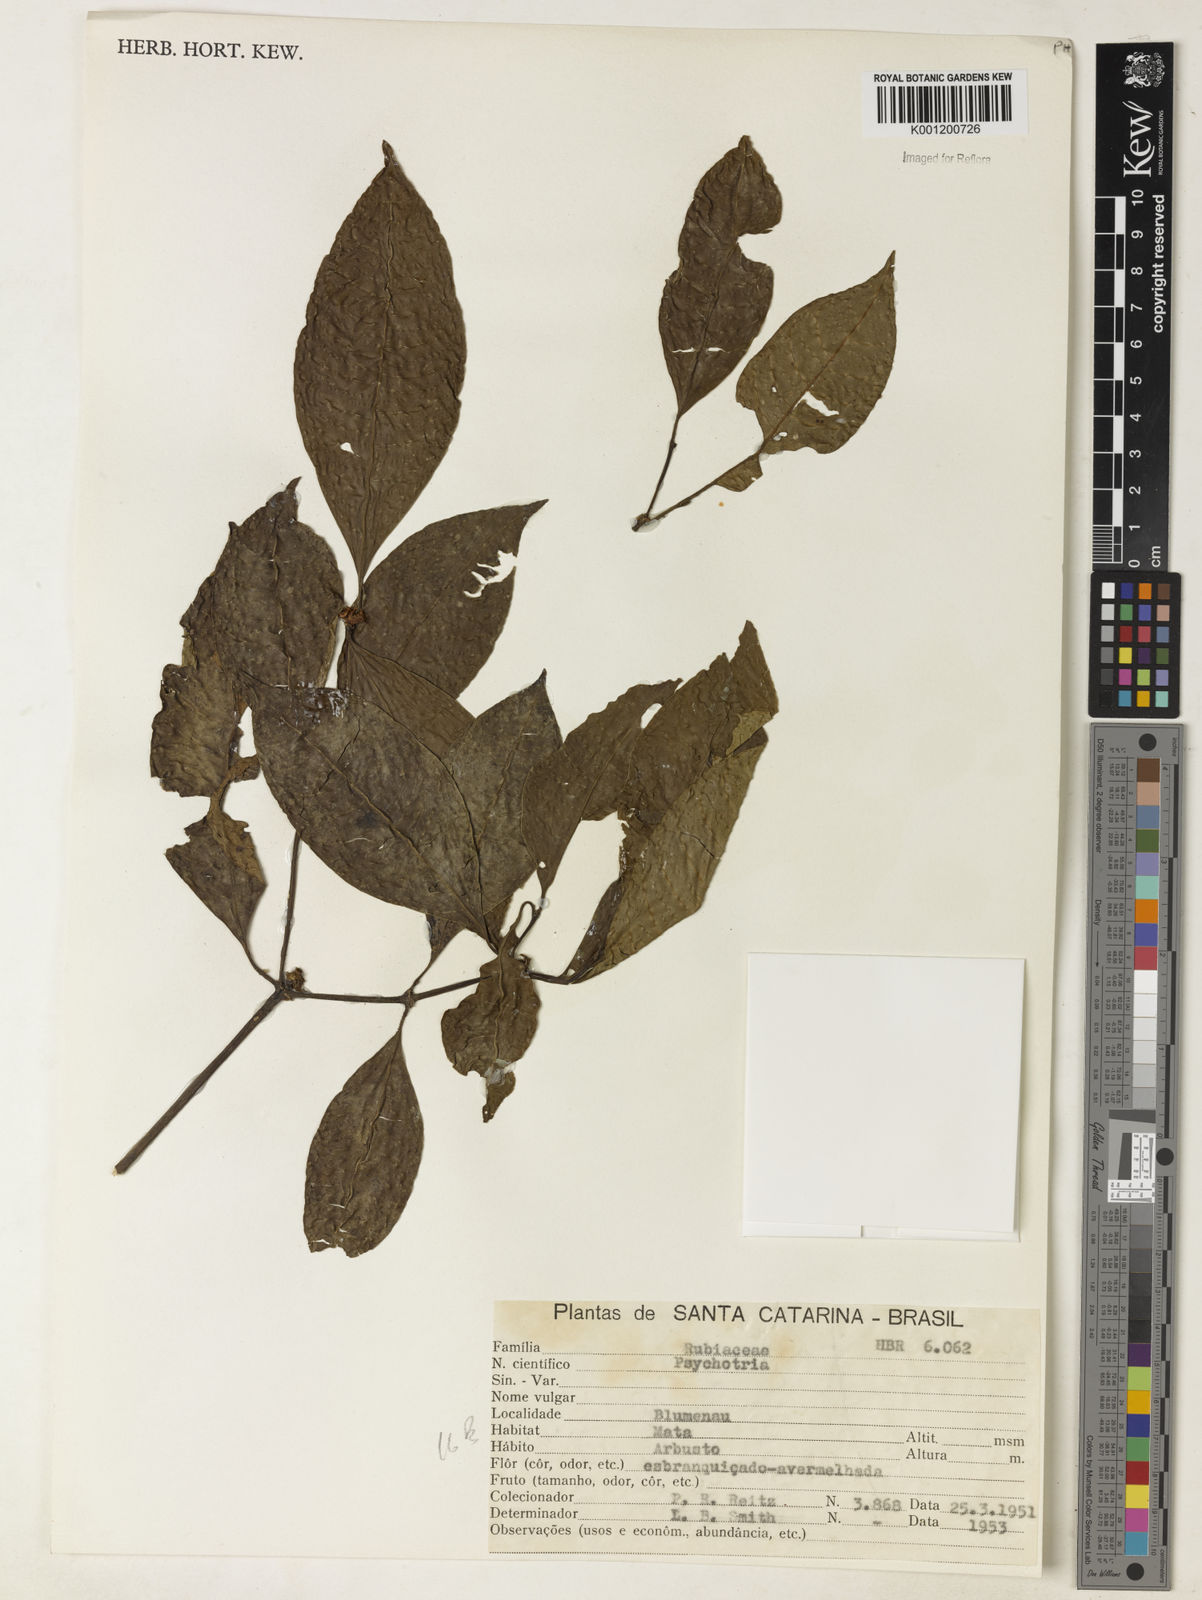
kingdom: Plantae
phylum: Tracheophyta
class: Magnoliopsida
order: Gentianales
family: Rubiaceae
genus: Psychotria
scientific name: Psychotria
